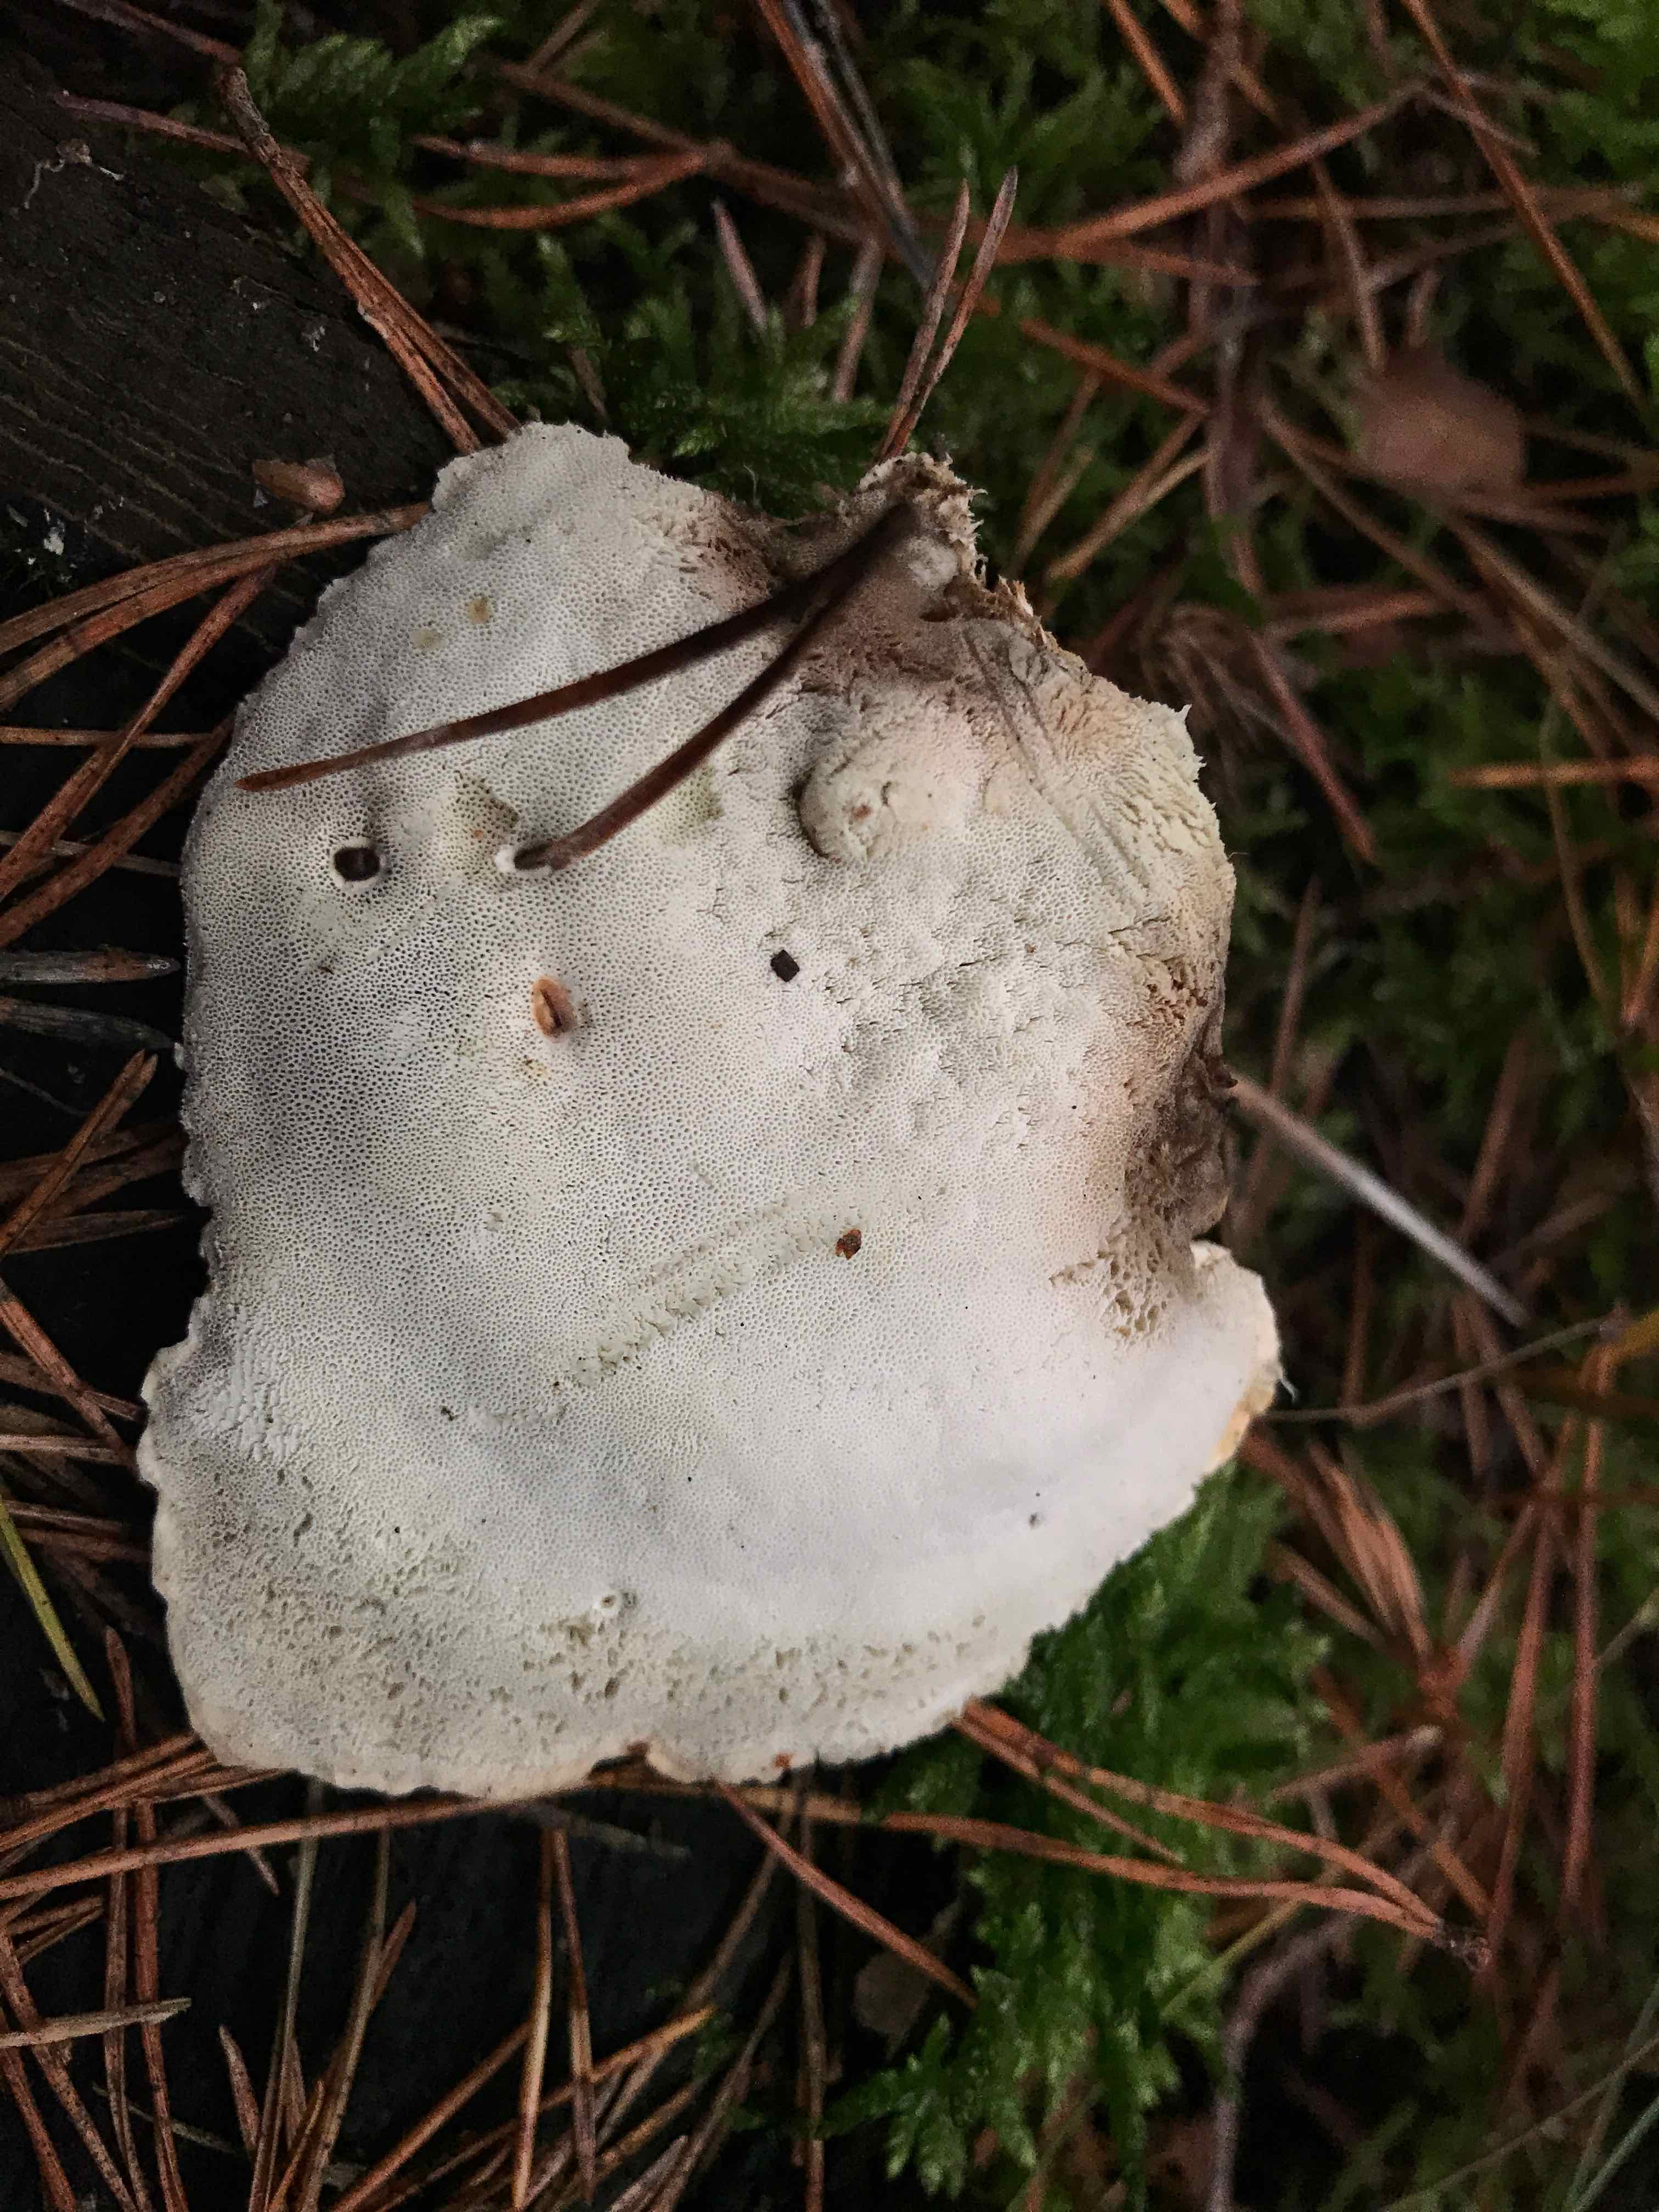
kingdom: Fungi
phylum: Basidiomycota
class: Agaricomycetes
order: Polyporales
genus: Calcipostia
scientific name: Calcipostia guttulata
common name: dråbe-kødporesvamp
